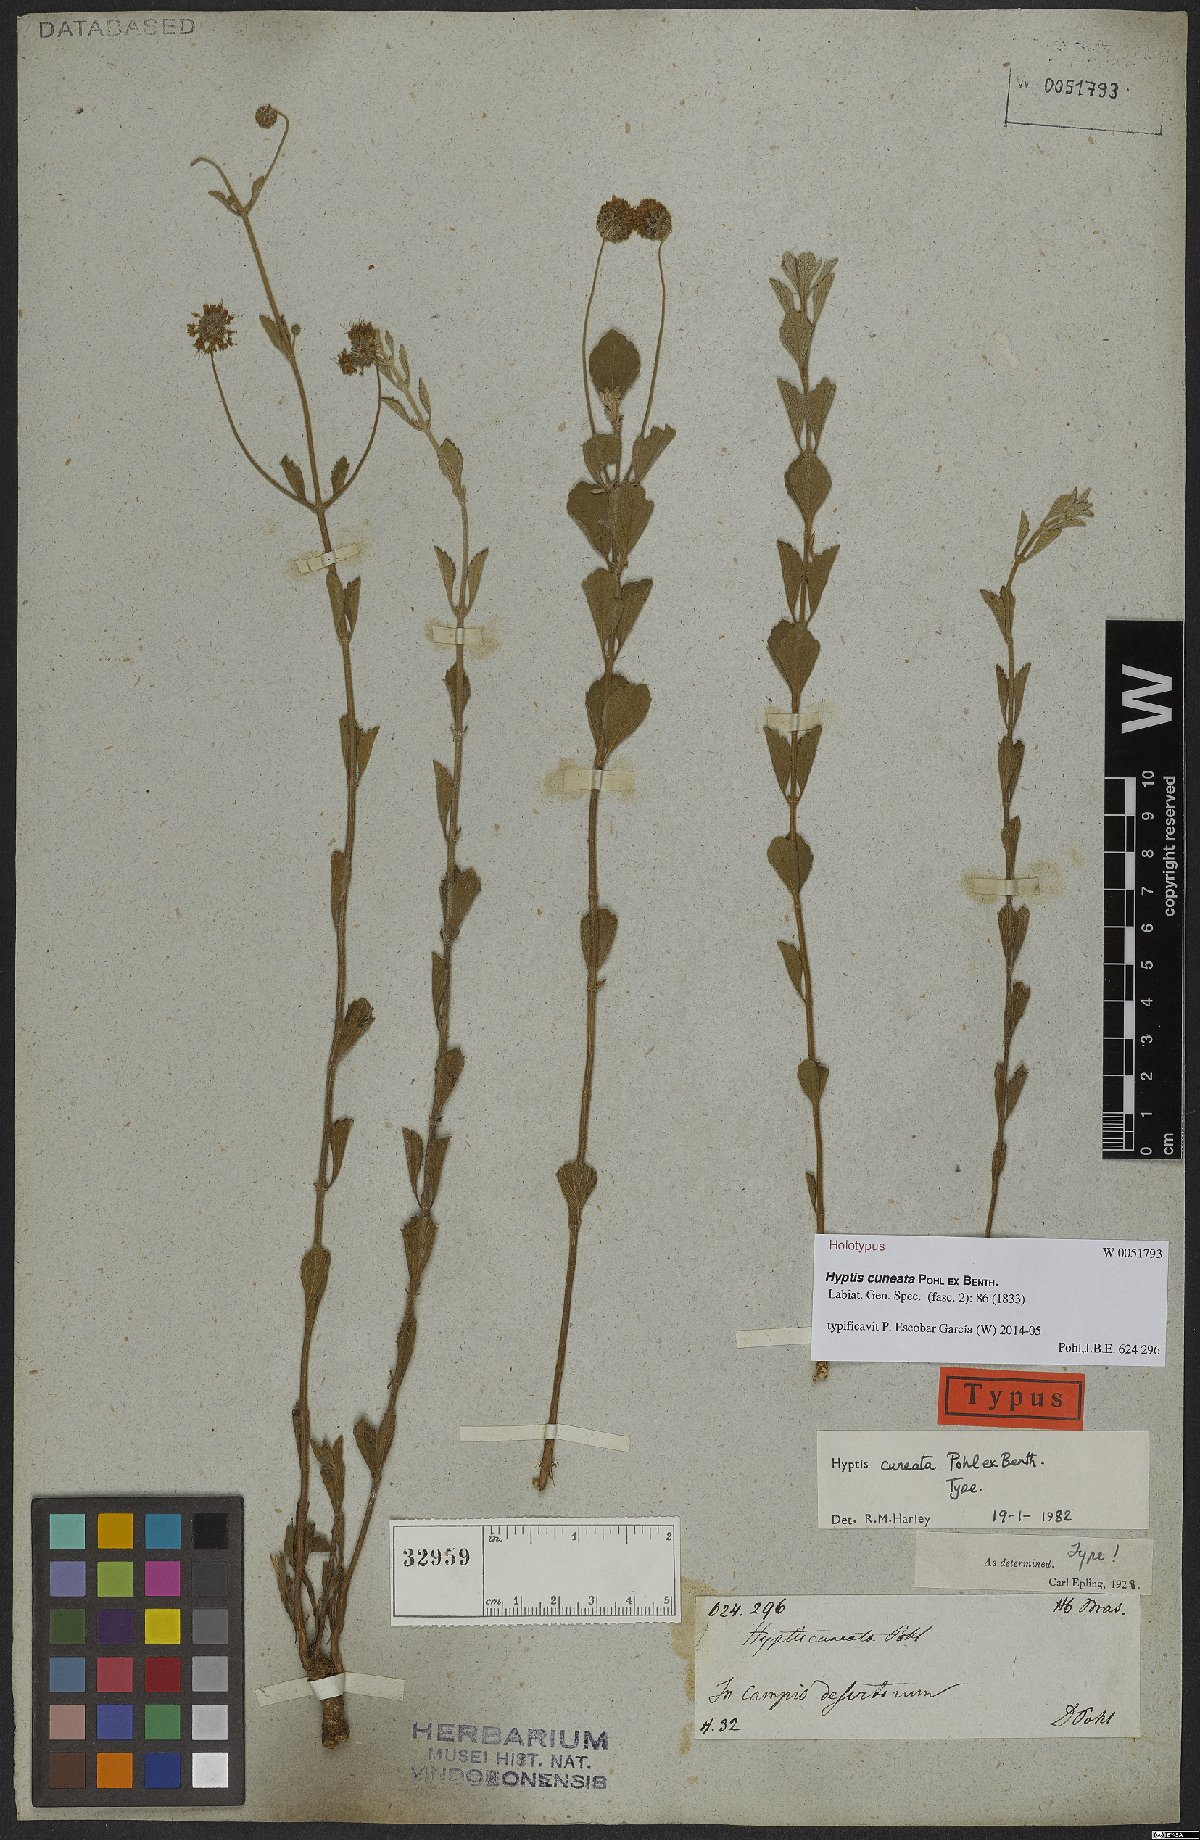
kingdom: Plantae
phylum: Tracheophyta
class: Magnoliopsida
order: Lamiales
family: Lamiaceae
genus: Cyanocephalus
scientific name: Cyanocephalus cuneatus
